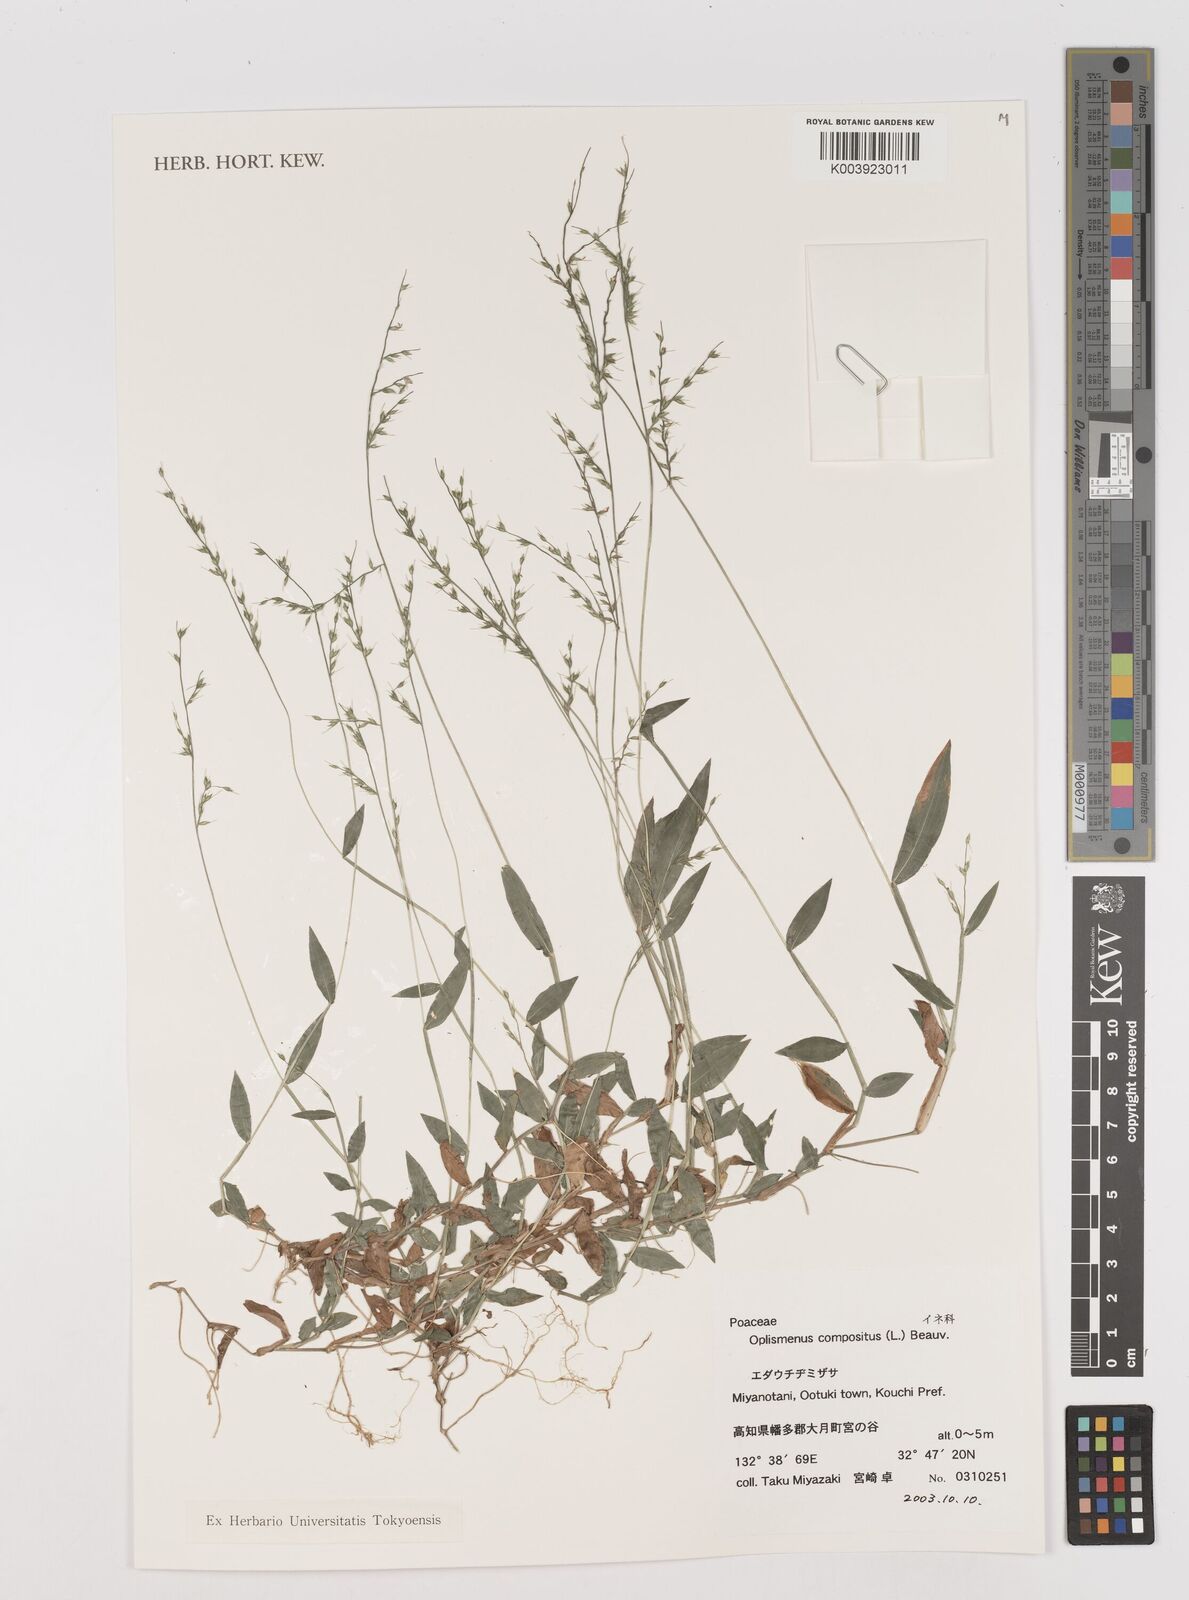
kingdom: Plantae
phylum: Tracheophyta
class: Liliopsida
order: Poales
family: Poaceae
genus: Oplismenus
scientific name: Oplismenus compositus
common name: Running mountain grass
